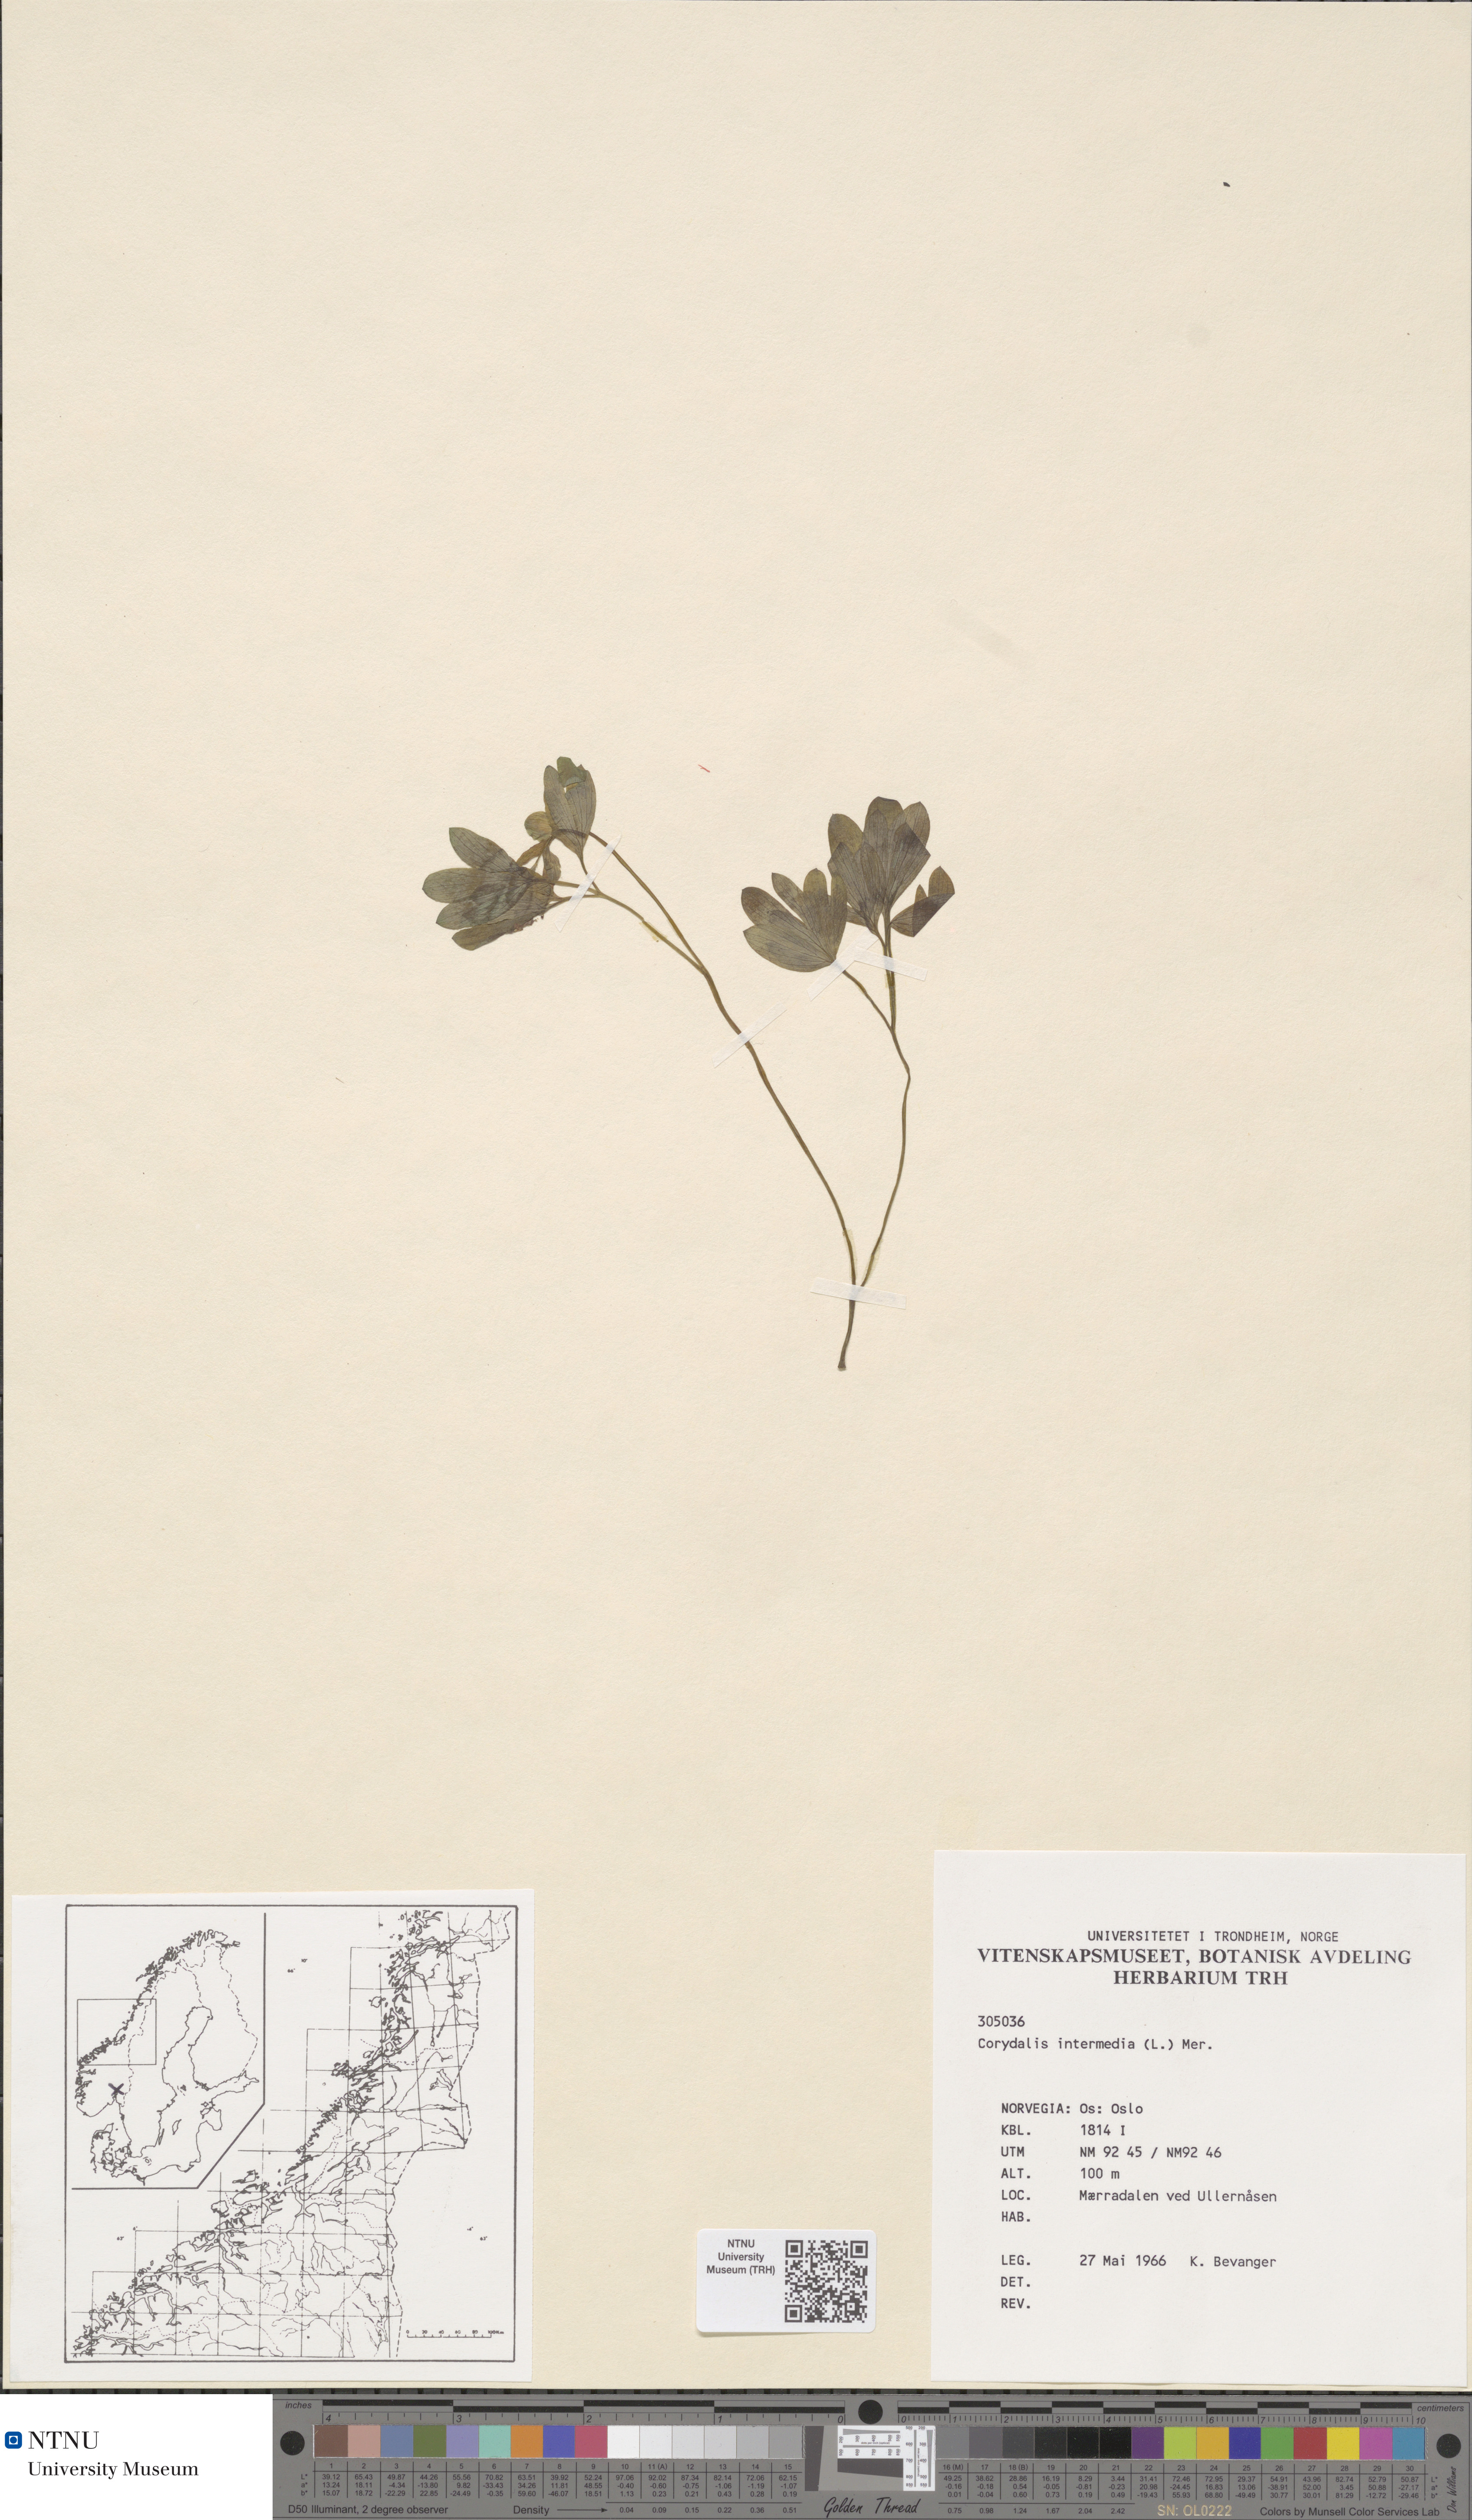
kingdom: Plantae
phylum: Tracheophyta
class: Magnoliopsida
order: Ranunculales
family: Papaveraceae
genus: Corydalis
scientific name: Corydalis intermedia
